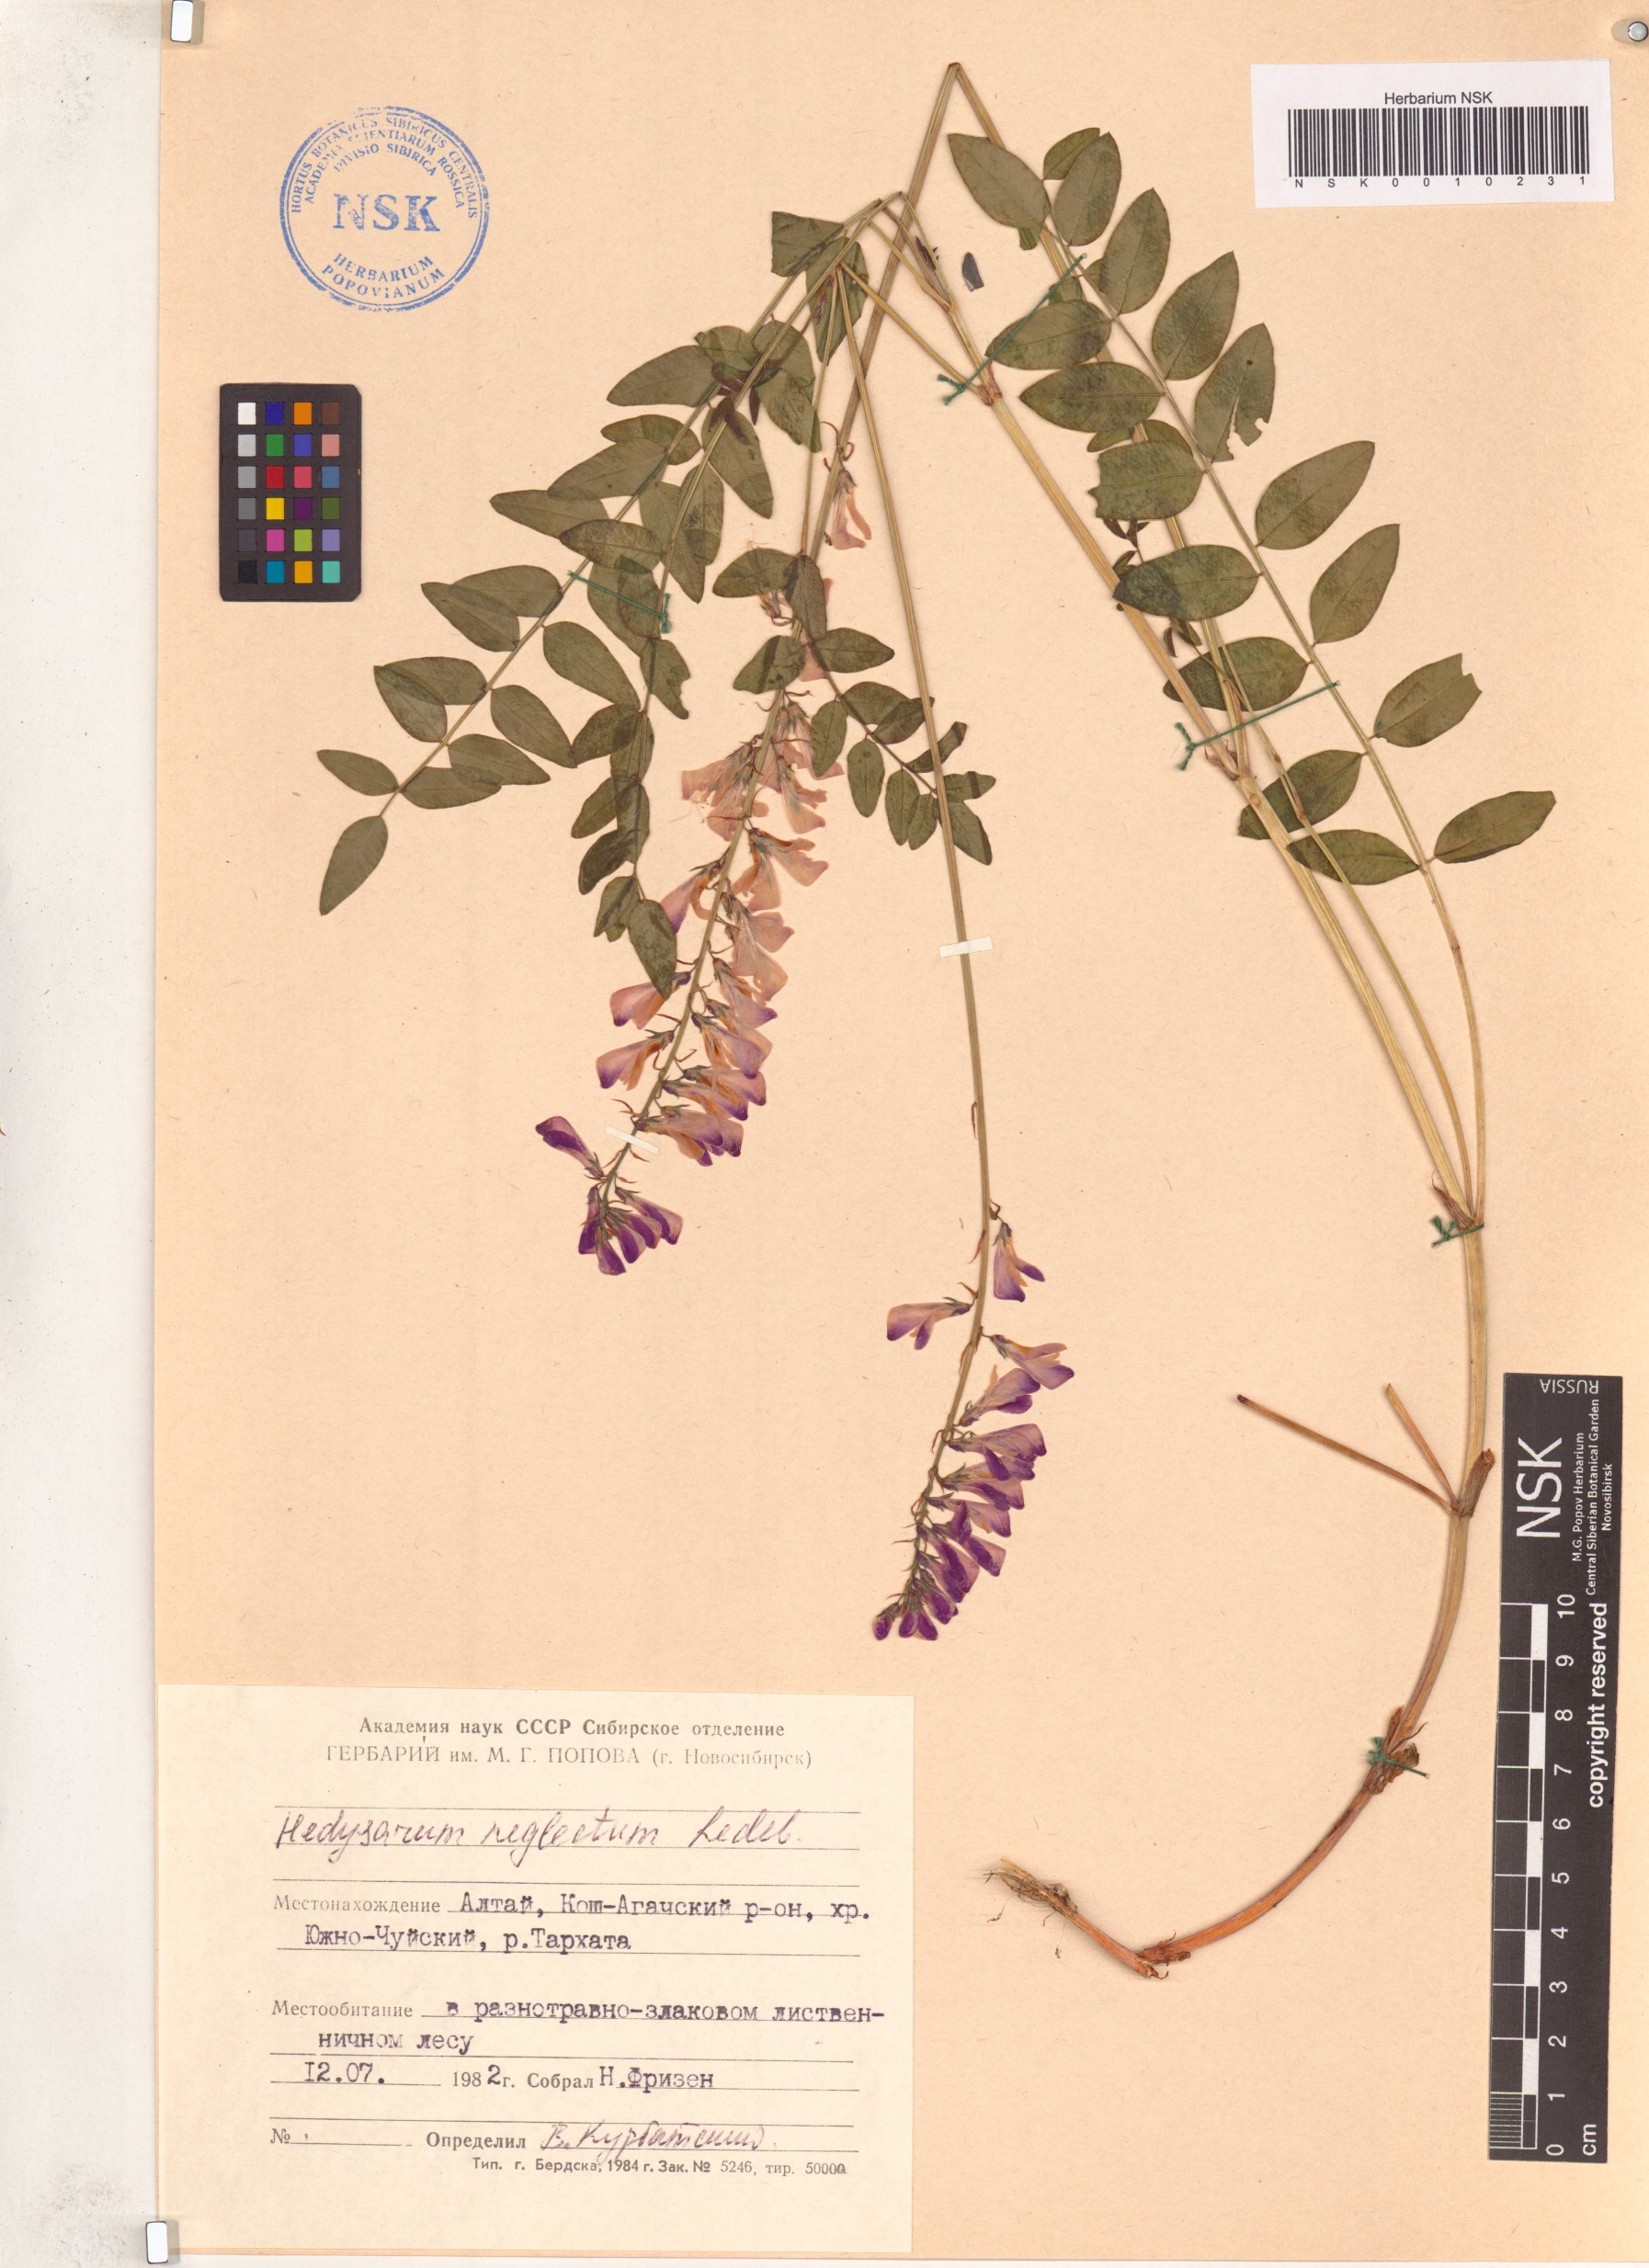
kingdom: Plantae
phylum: Tracheophyta
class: Magnoliopsida
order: Fabales
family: Fabaceae
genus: Hedysarum
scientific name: Hedysarum neglectum
